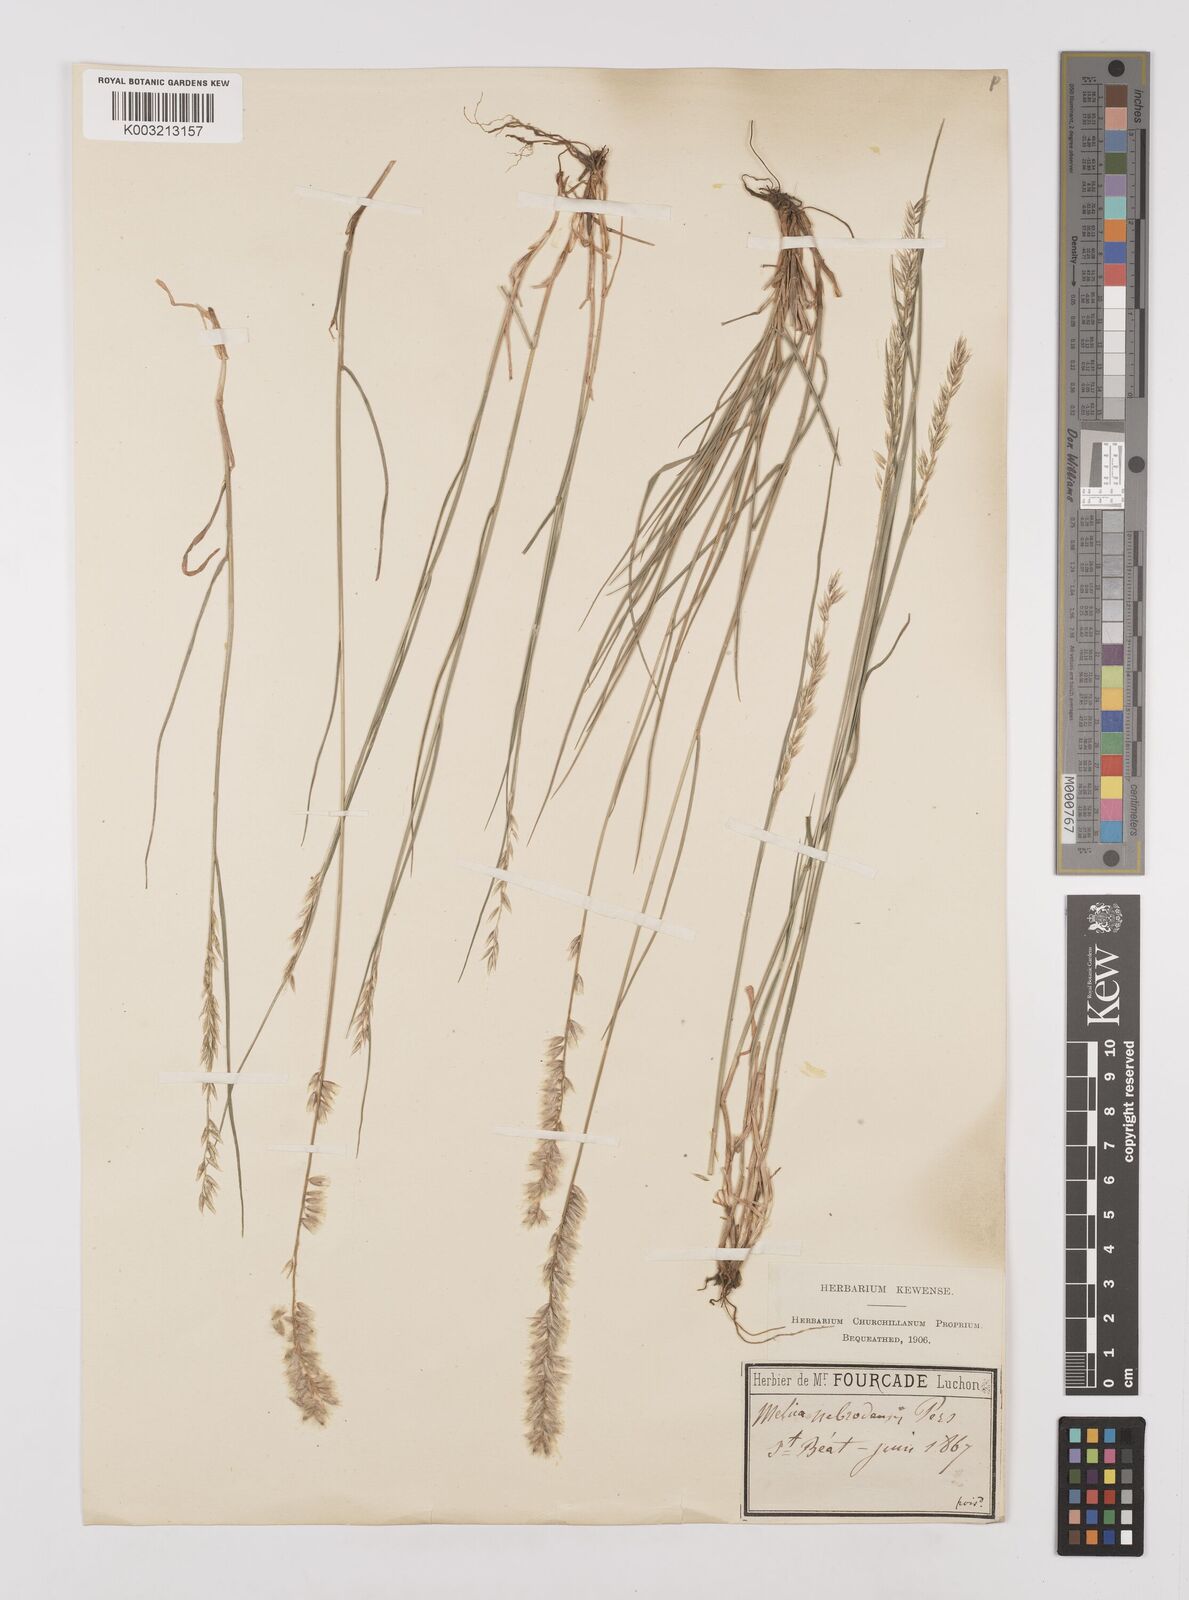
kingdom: Plantae
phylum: Tracheophyta
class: Liliopsida
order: Poales
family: Poaceae
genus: Melica
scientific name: Melica ciliata
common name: Hairy melicgrass
